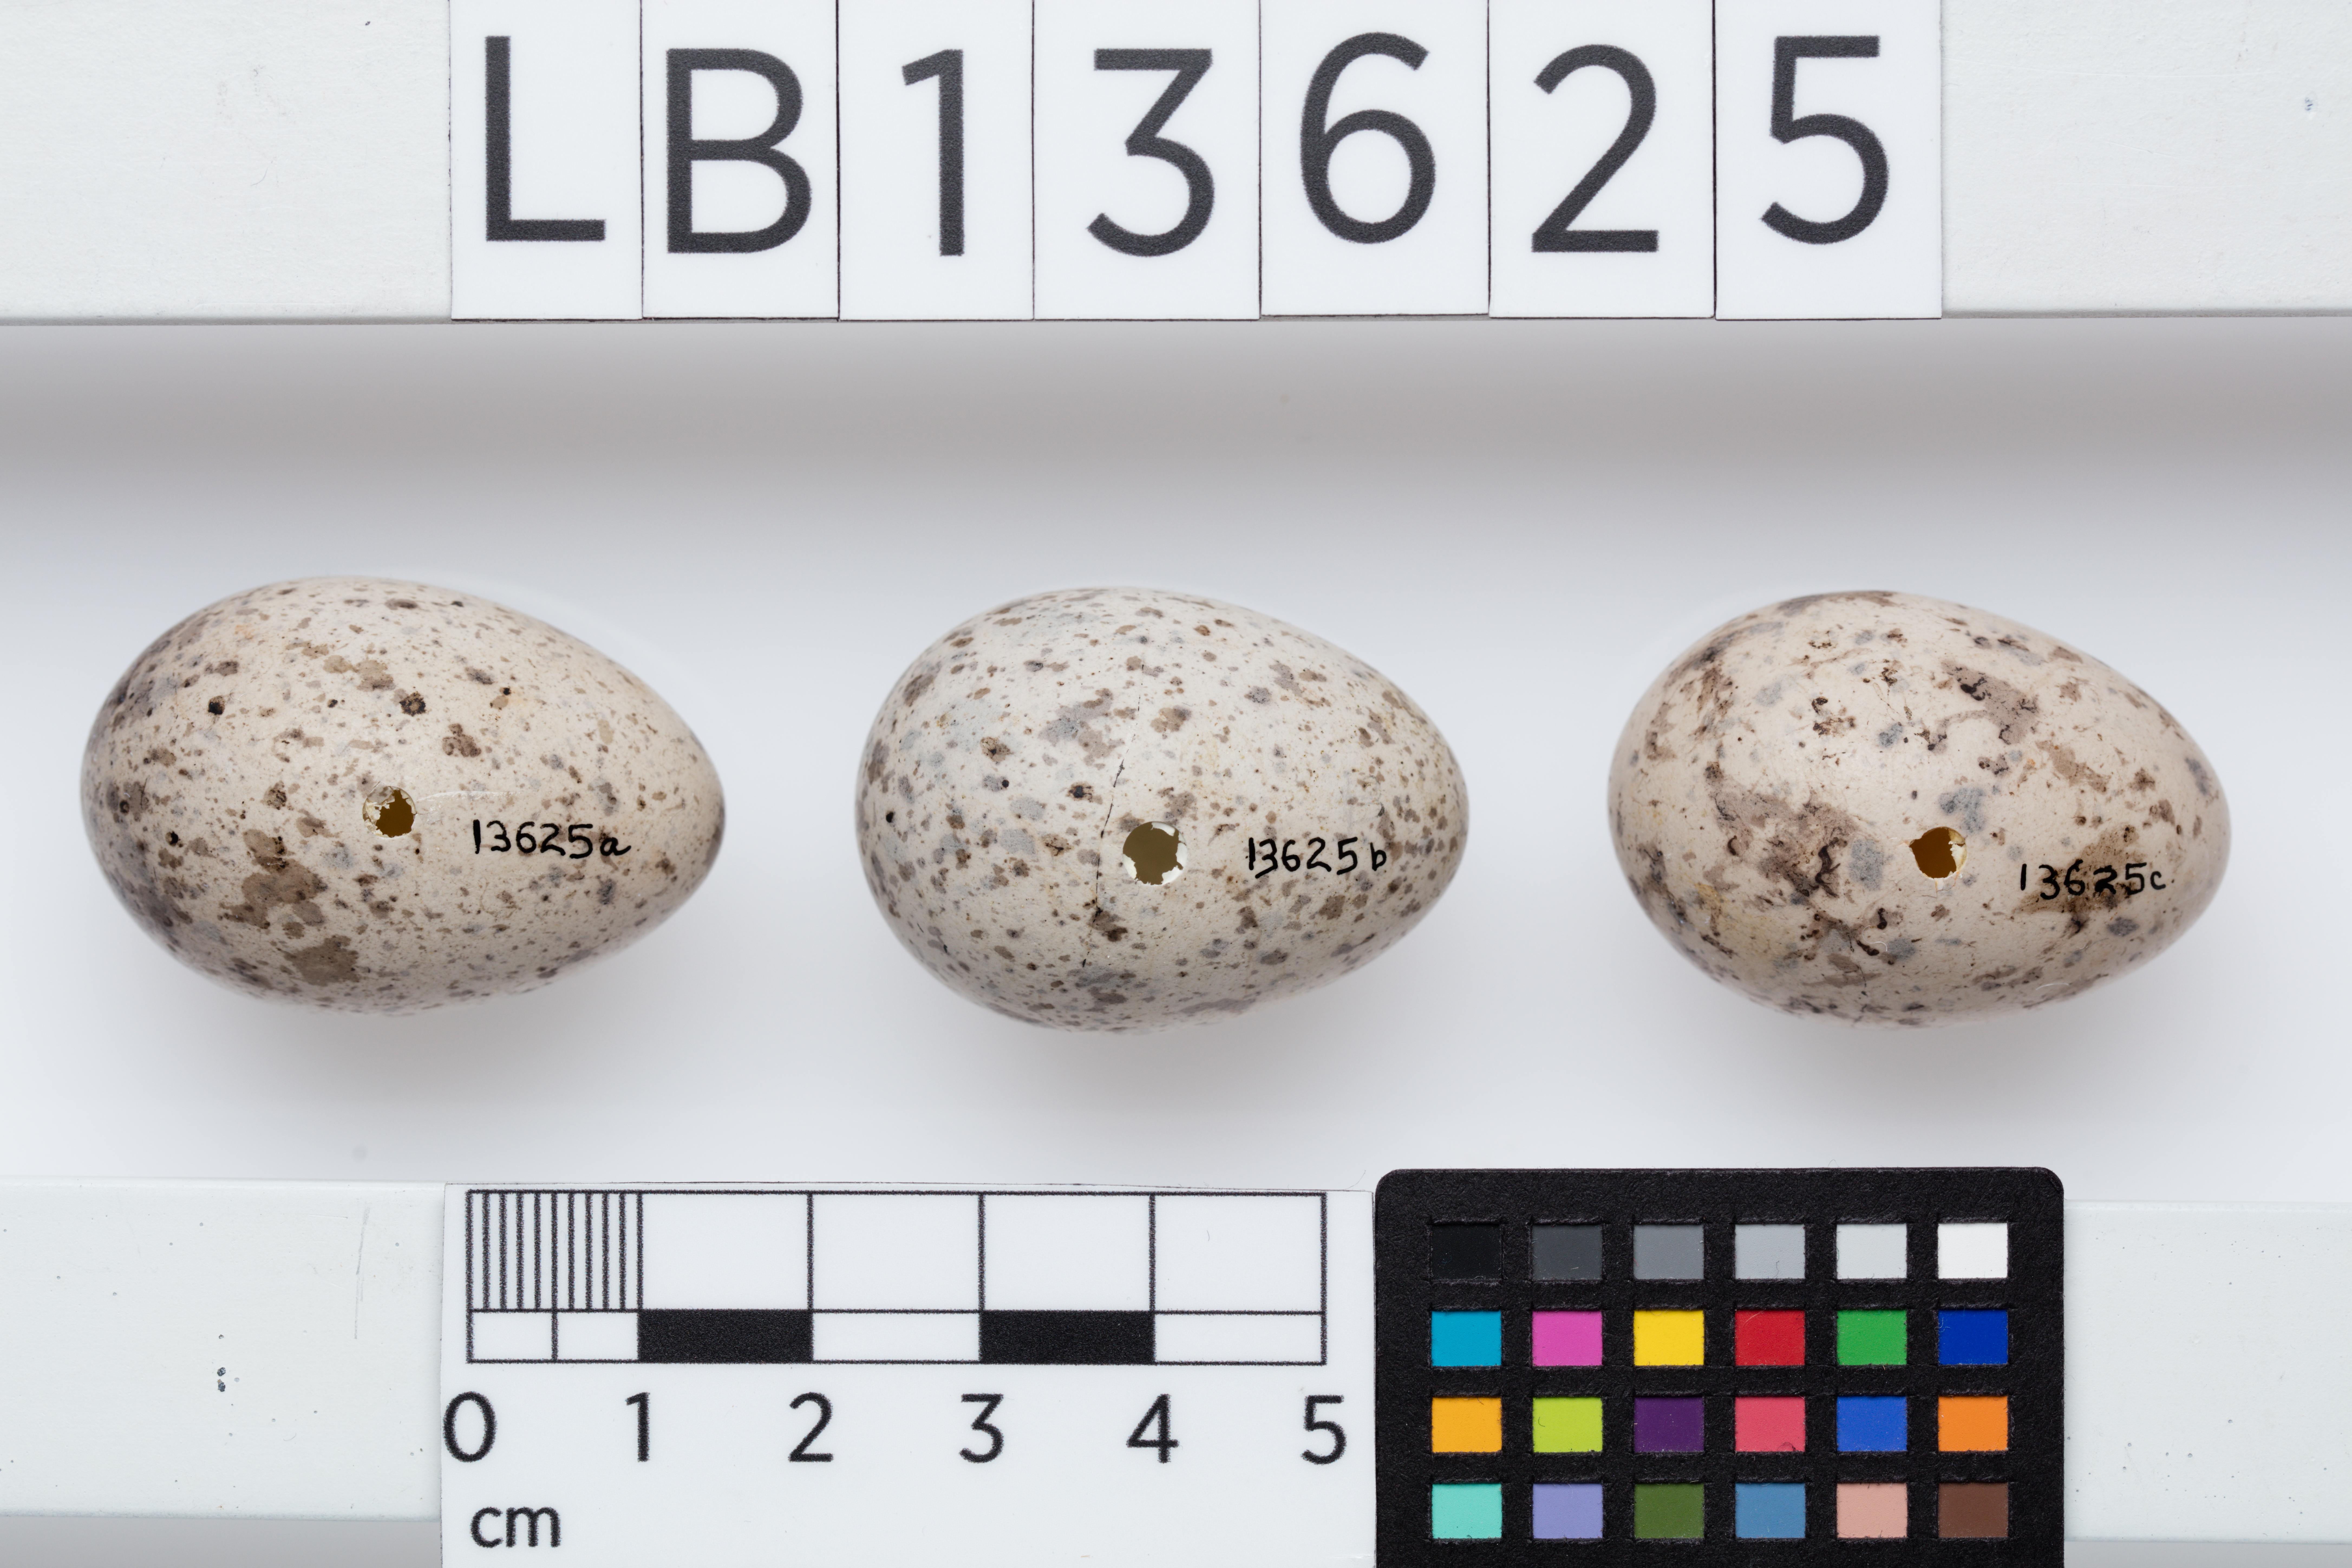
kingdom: Animalia
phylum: Chordata
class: Aves
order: Passeriformes
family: Callaeatidae
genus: Callaeas
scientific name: Callaeas cinereus
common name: South island kokako
